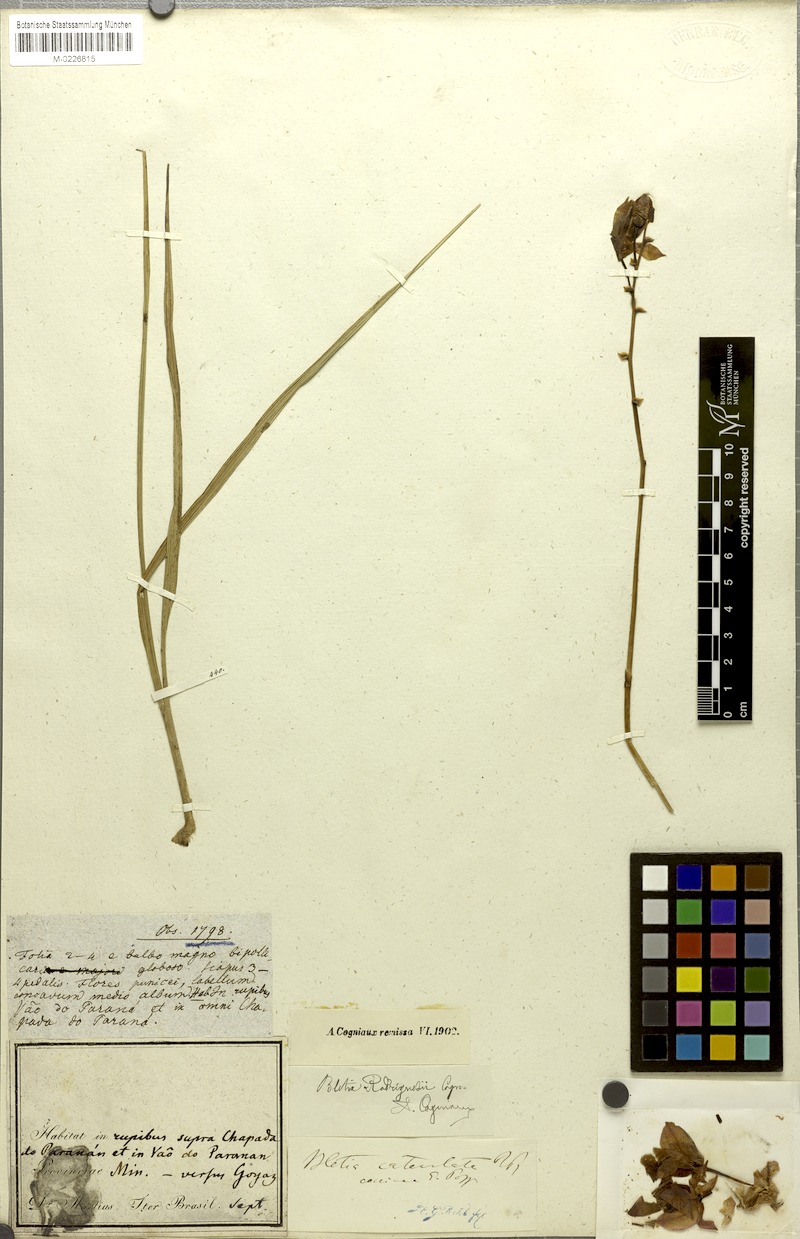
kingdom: Plantae
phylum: Tracheophyta
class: Liliopsida
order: Asparagales
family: Orchidaceae
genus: Bletia
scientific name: Bletia catenulata
